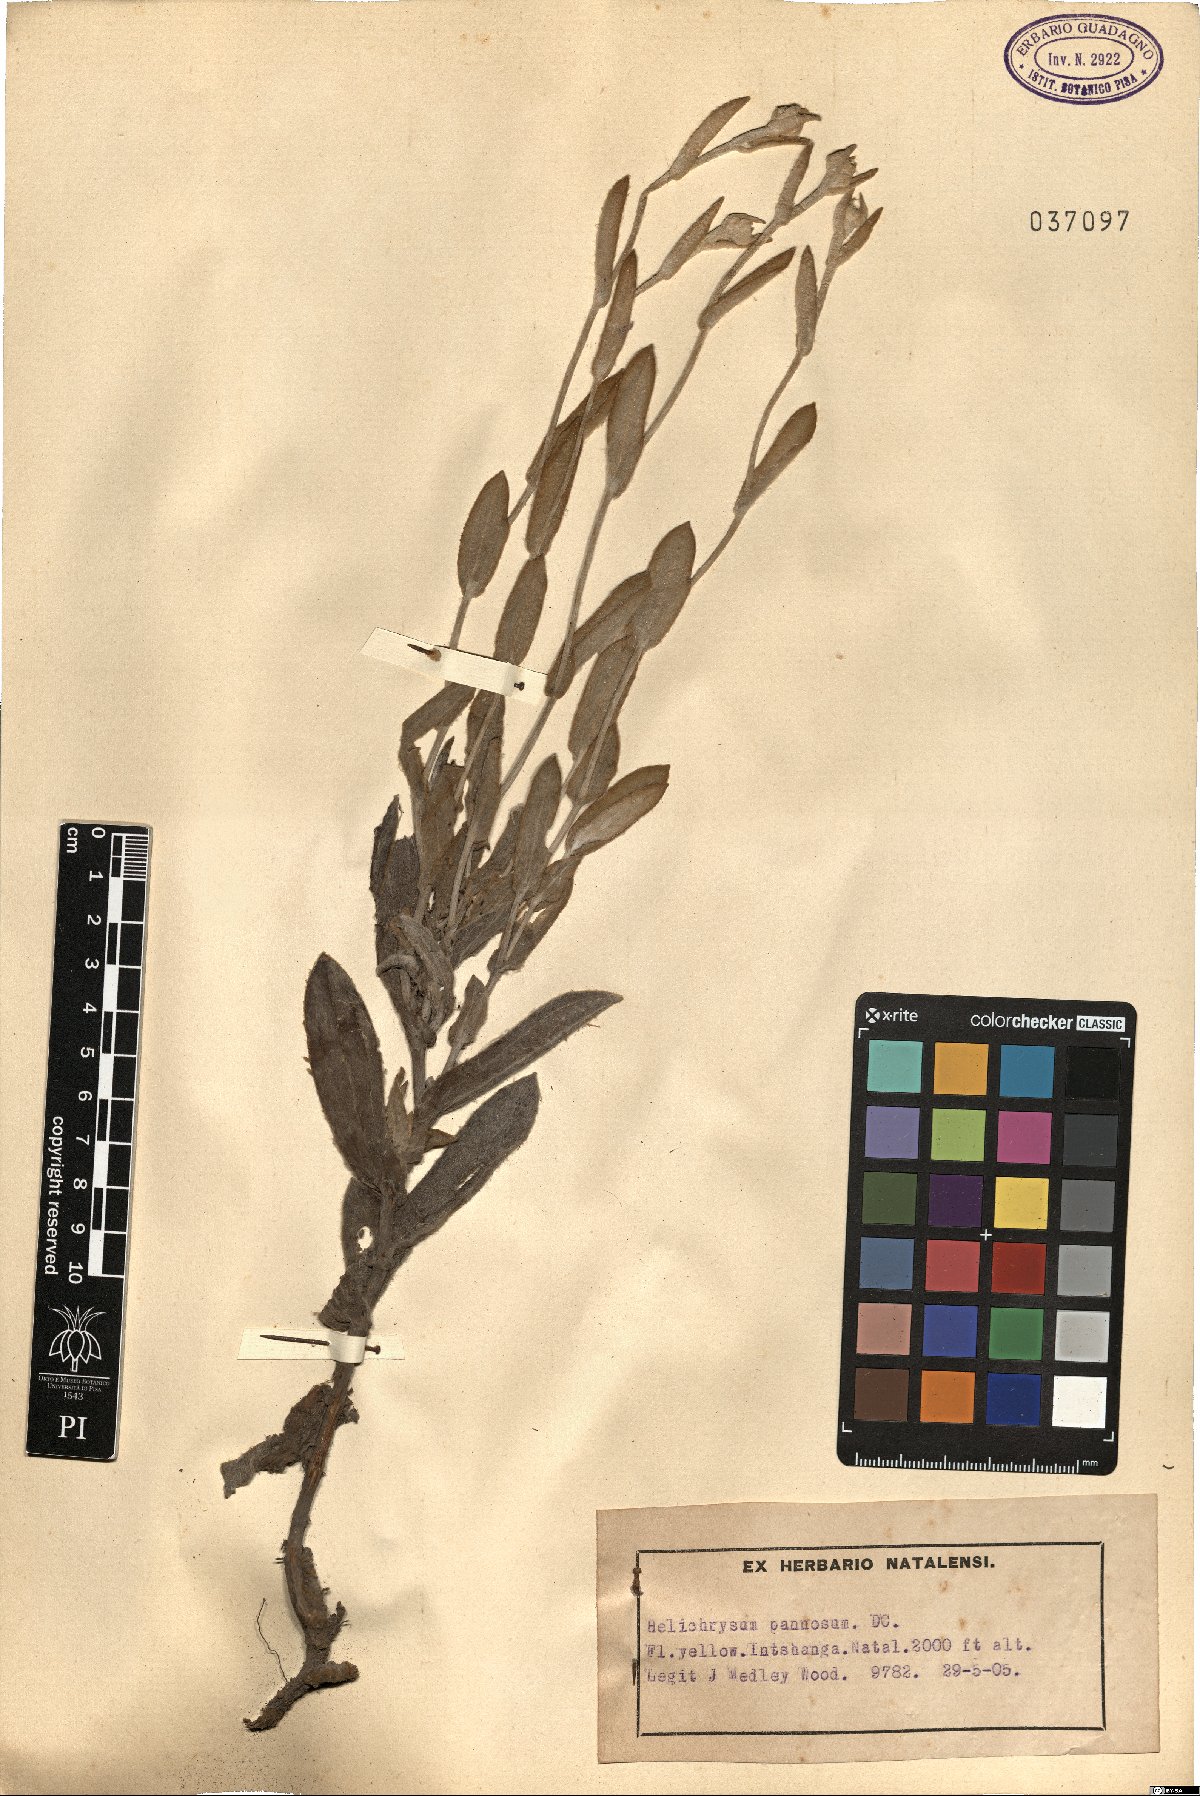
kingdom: Plantae
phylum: Tracheophyta
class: Magnoliopsida
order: Asterales
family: Asteraceae
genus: Helichrysum
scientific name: Helichrysum pannosum
